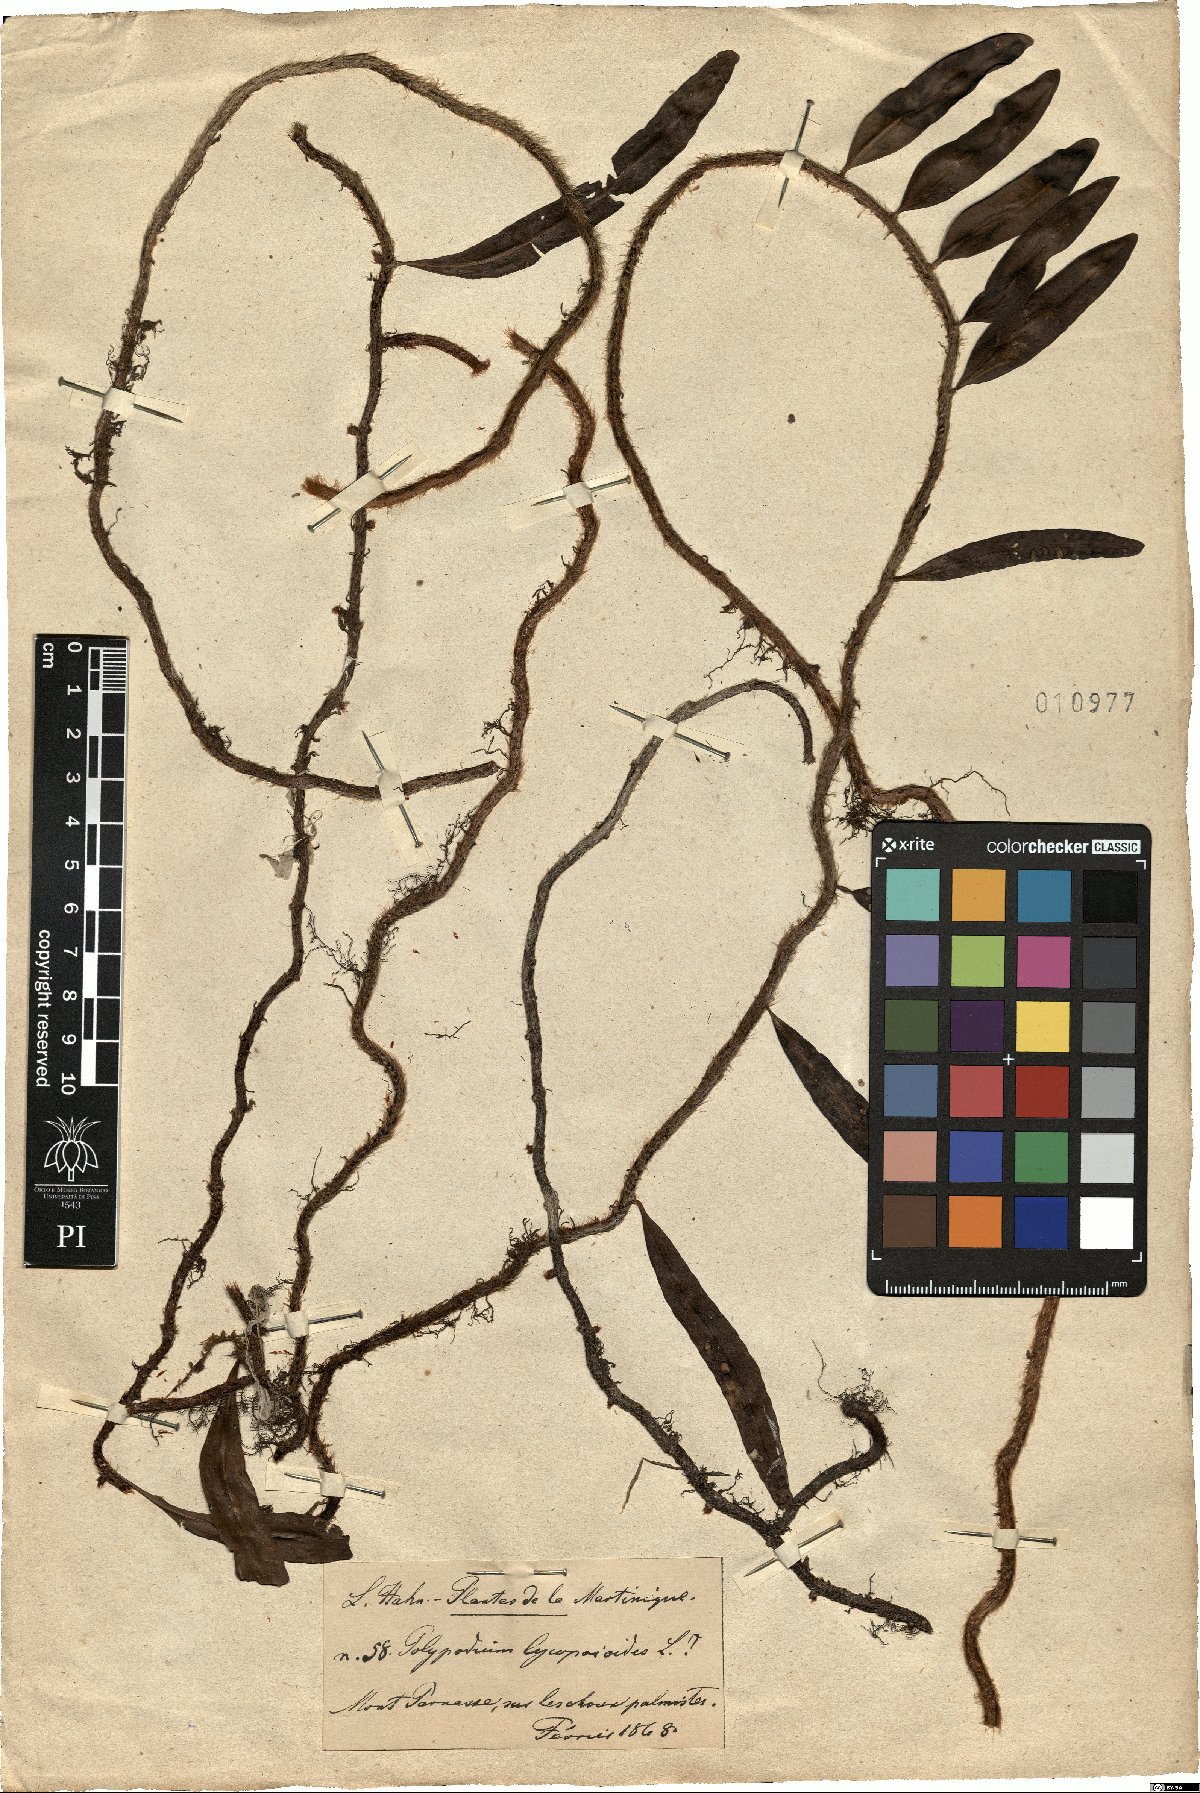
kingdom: Plantae
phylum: Tracheophyta
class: Polypodiopsida
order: Polypodiales
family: Polypodiaceae
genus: Microgramma
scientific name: Microgramma lycopodioides
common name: Bastard catclaw
